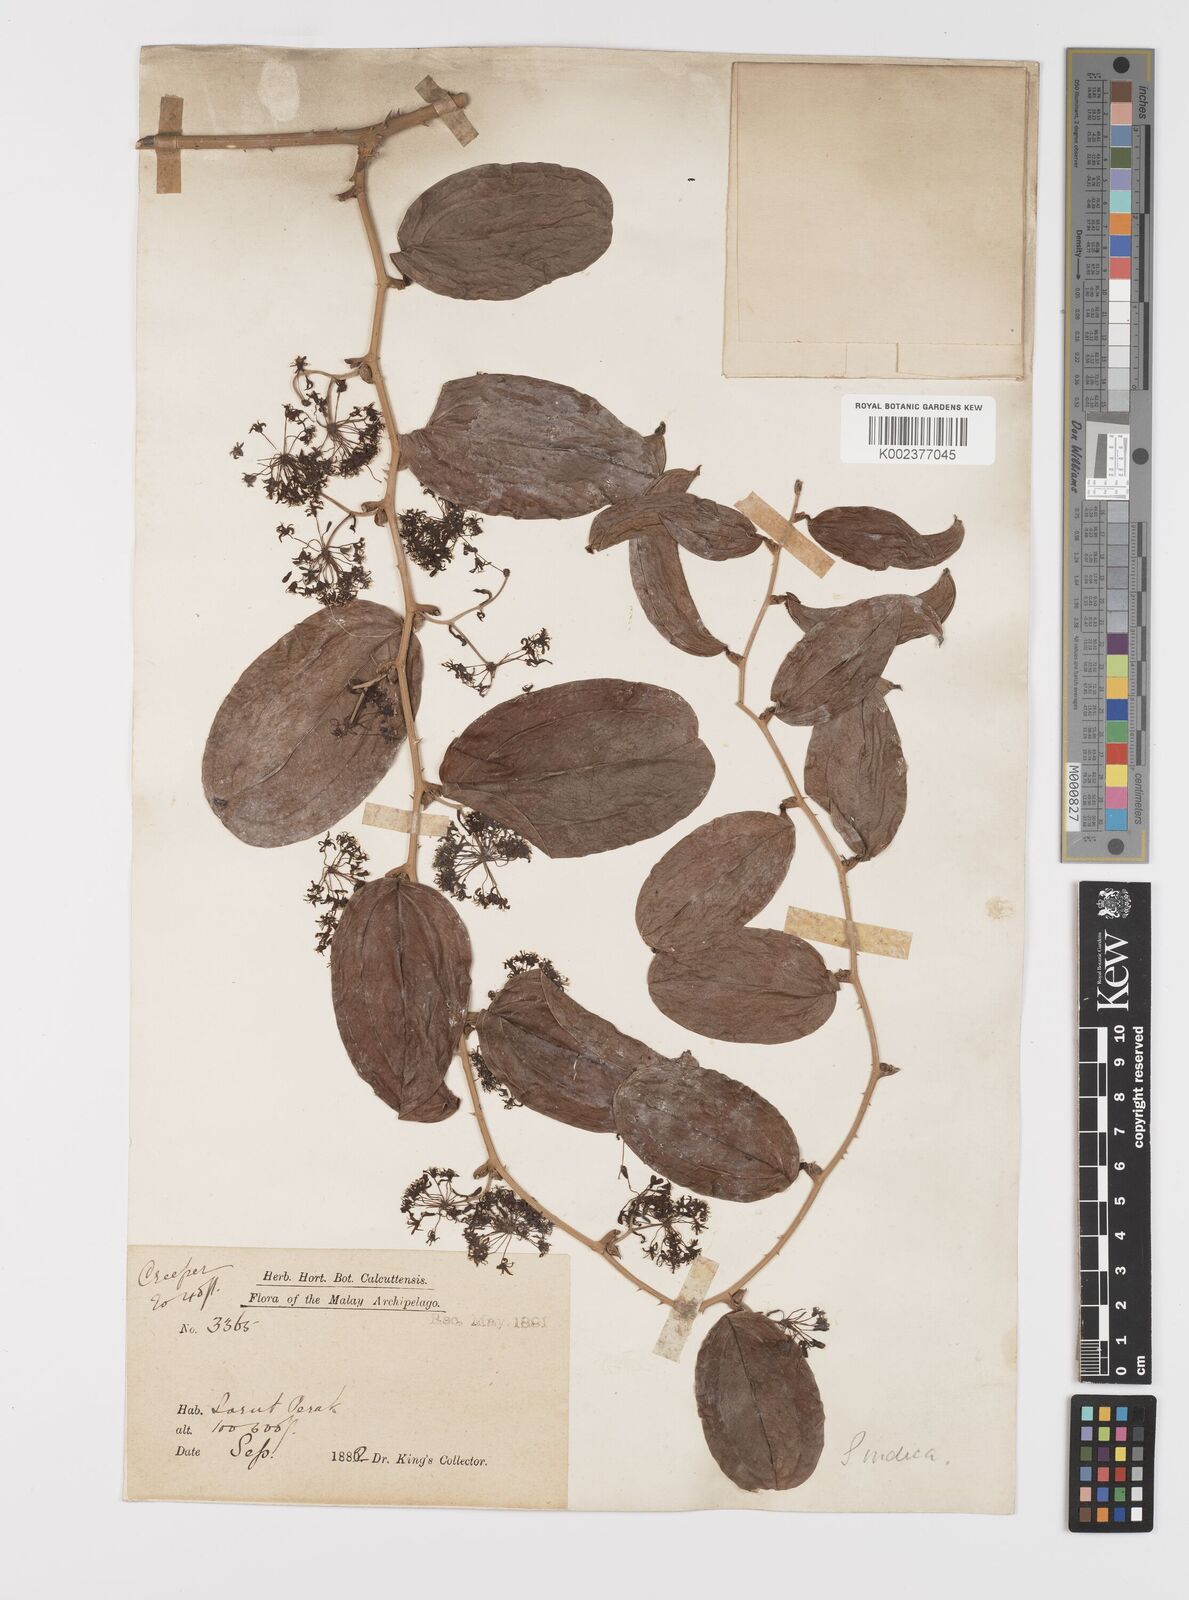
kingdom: Plantae
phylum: Tracheophyta
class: Liliopsida
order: Liliales
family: Smilacaceae
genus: Smilax
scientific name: Smilax luzonensis
